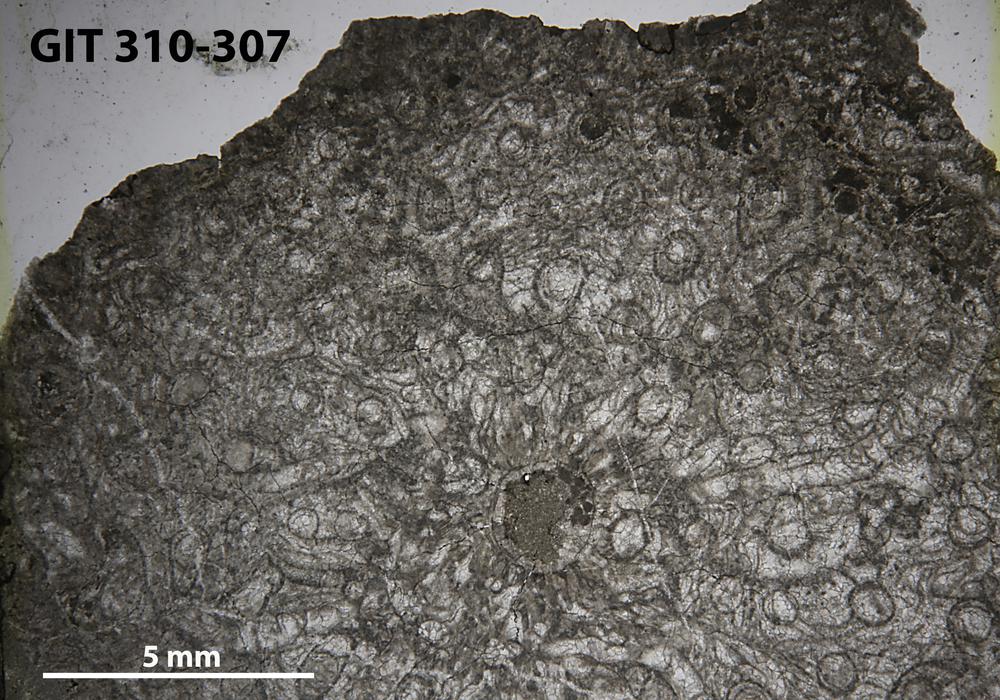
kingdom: Animalia
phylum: Cnidaria
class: Anthozoa
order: Heliolitina
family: Heliolitidae
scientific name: Heliolitidae
